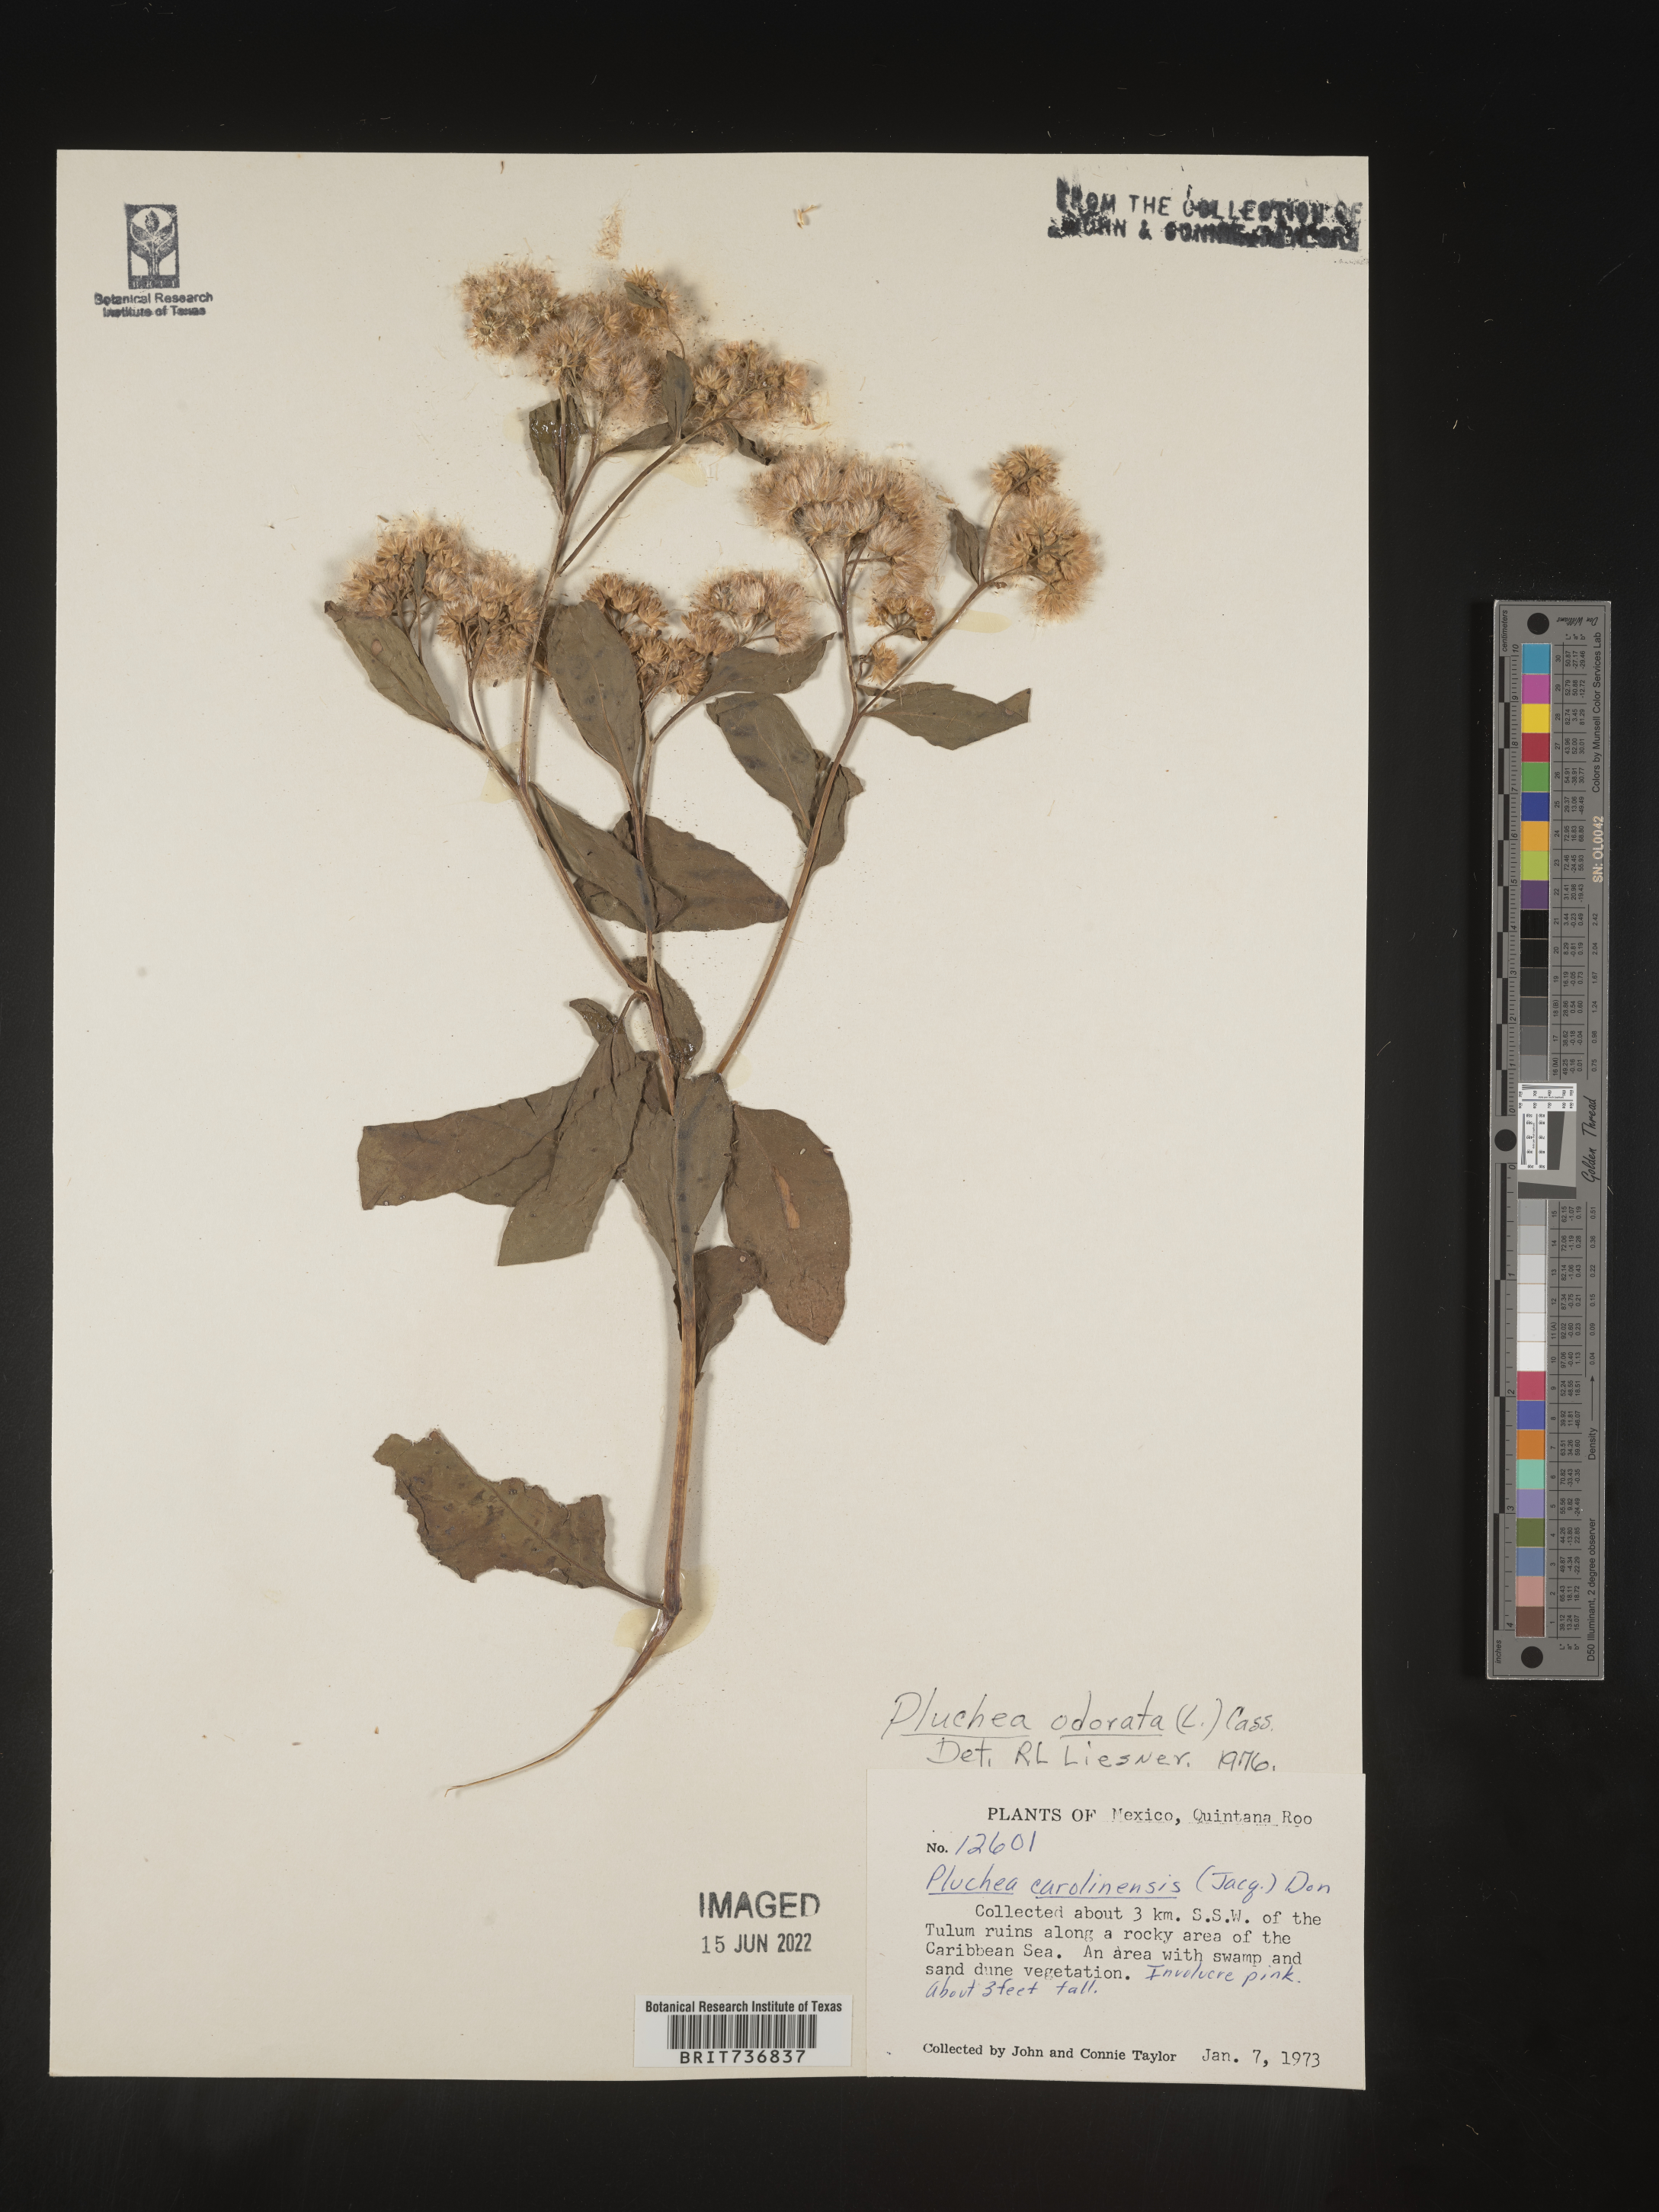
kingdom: Plantae
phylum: Tracheophyta
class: Magnoliopsida
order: Asterales
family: Asteraceae
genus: Pluchea
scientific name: Pluchea
